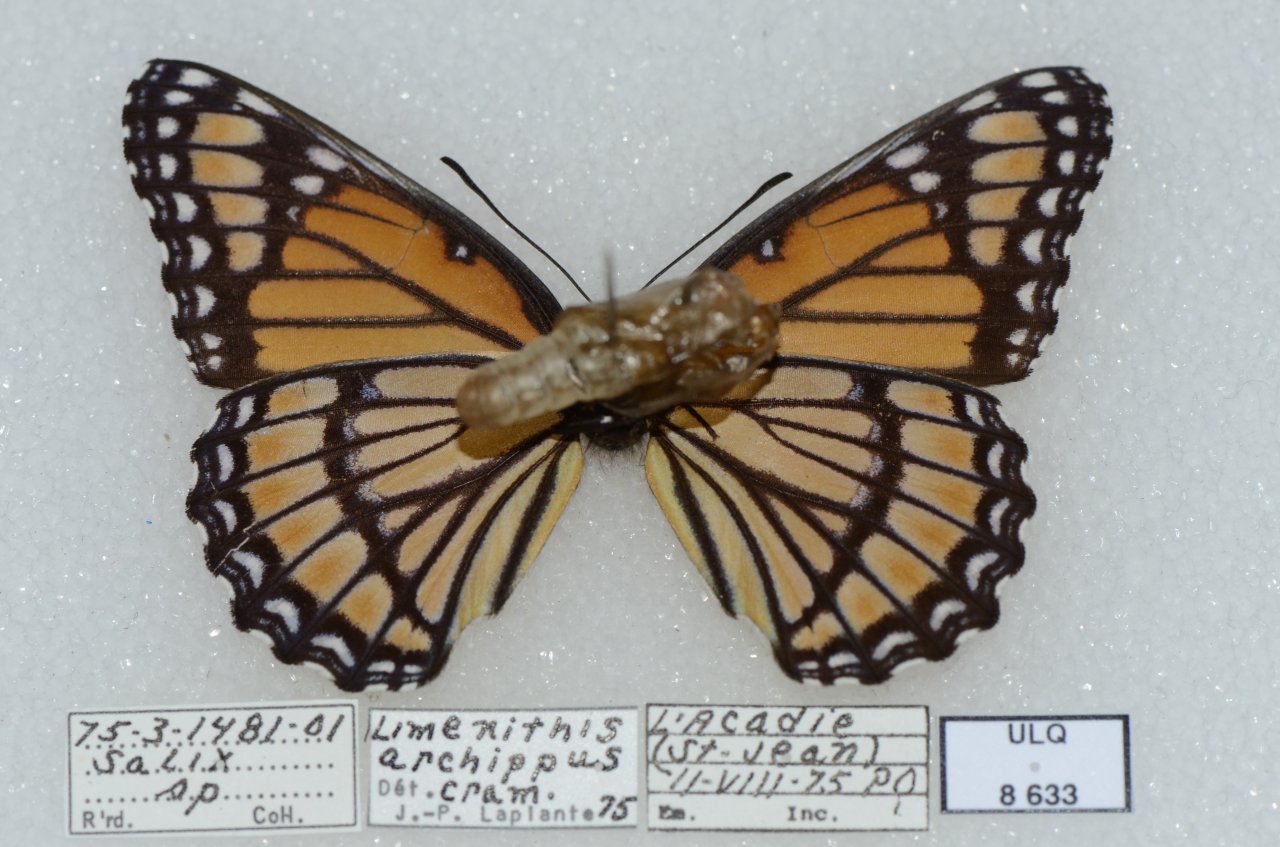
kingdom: Animalia
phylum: Arthropoda
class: Insecta
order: Lepidoptera
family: Nymphalidae
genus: Limenitis
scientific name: Limenitis archippus
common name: Viceroy
